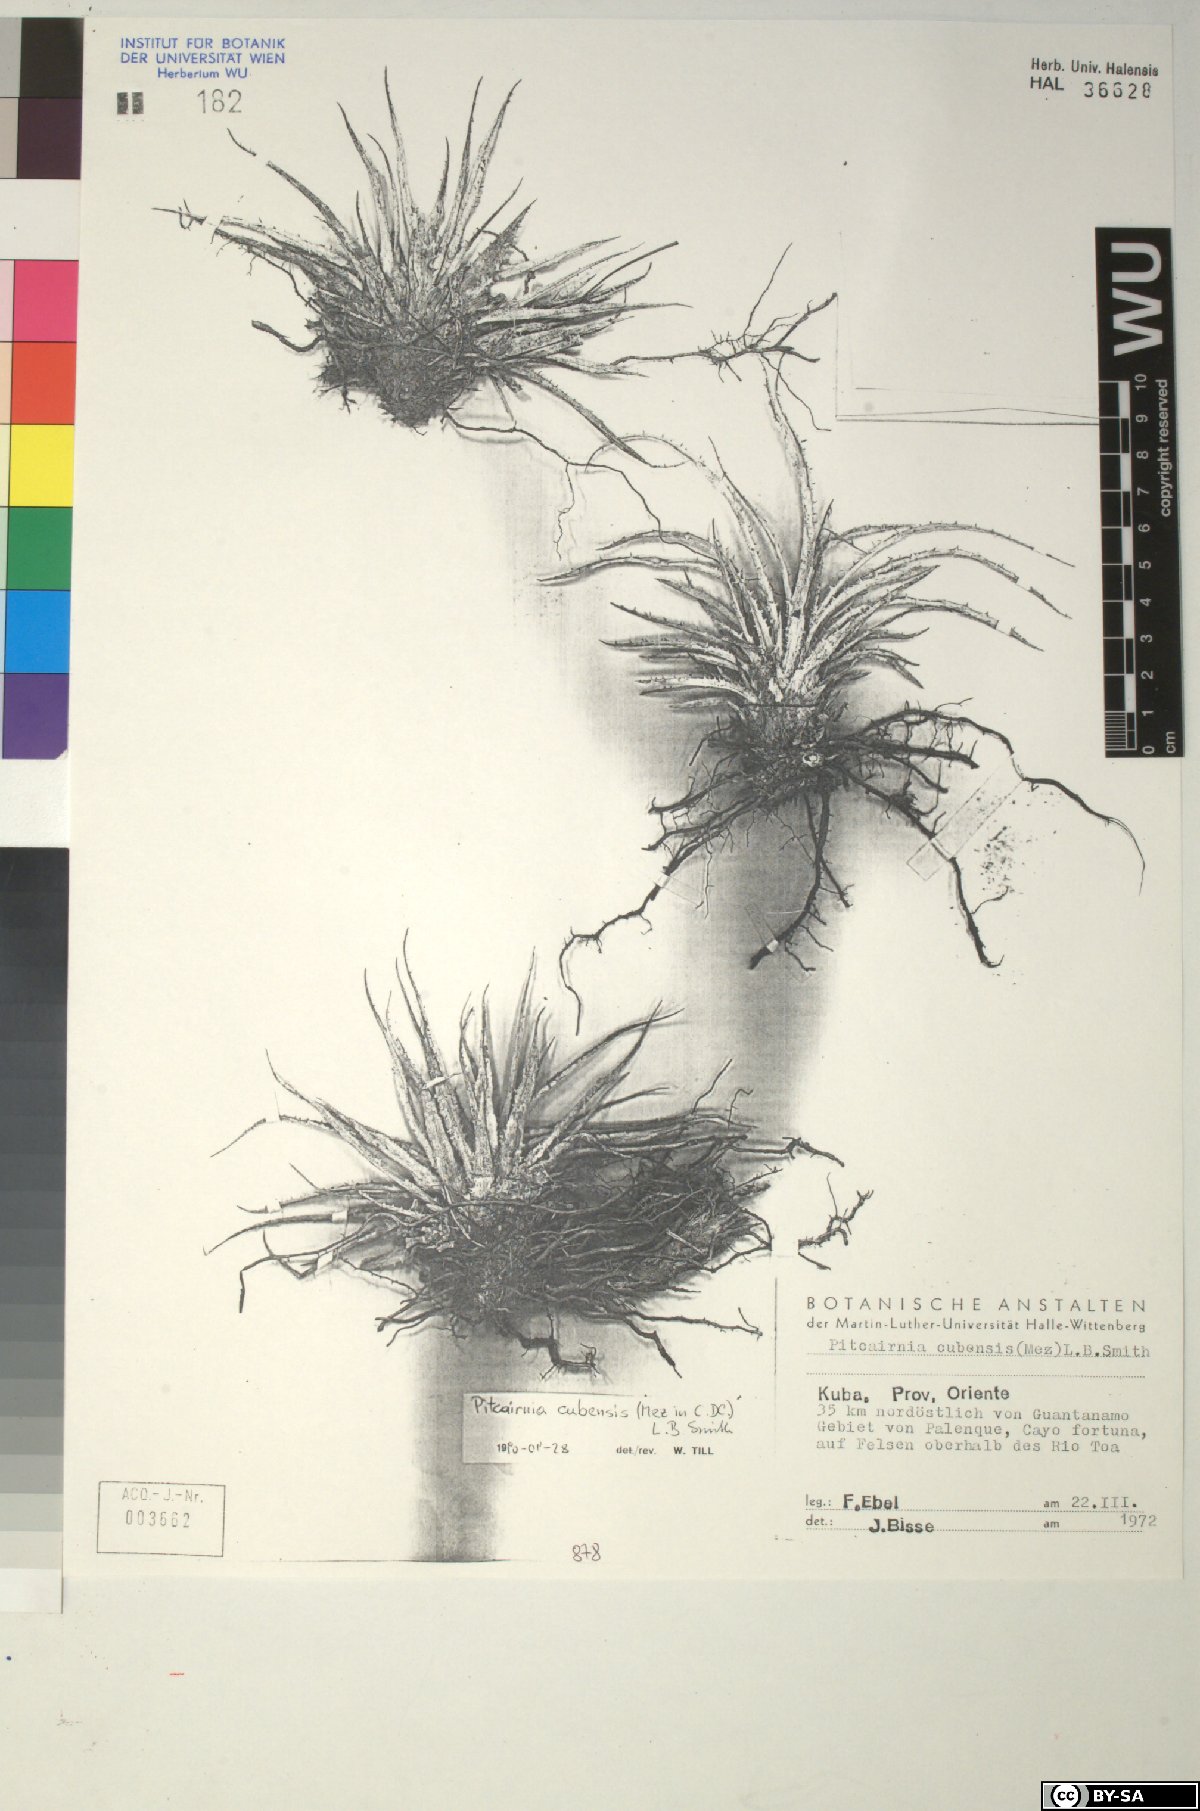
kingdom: Plantae
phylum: Tracheophyta
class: Liliopsida
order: Poales
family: Bromeliaceae
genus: Pitcairnia
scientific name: Pitcairnia
